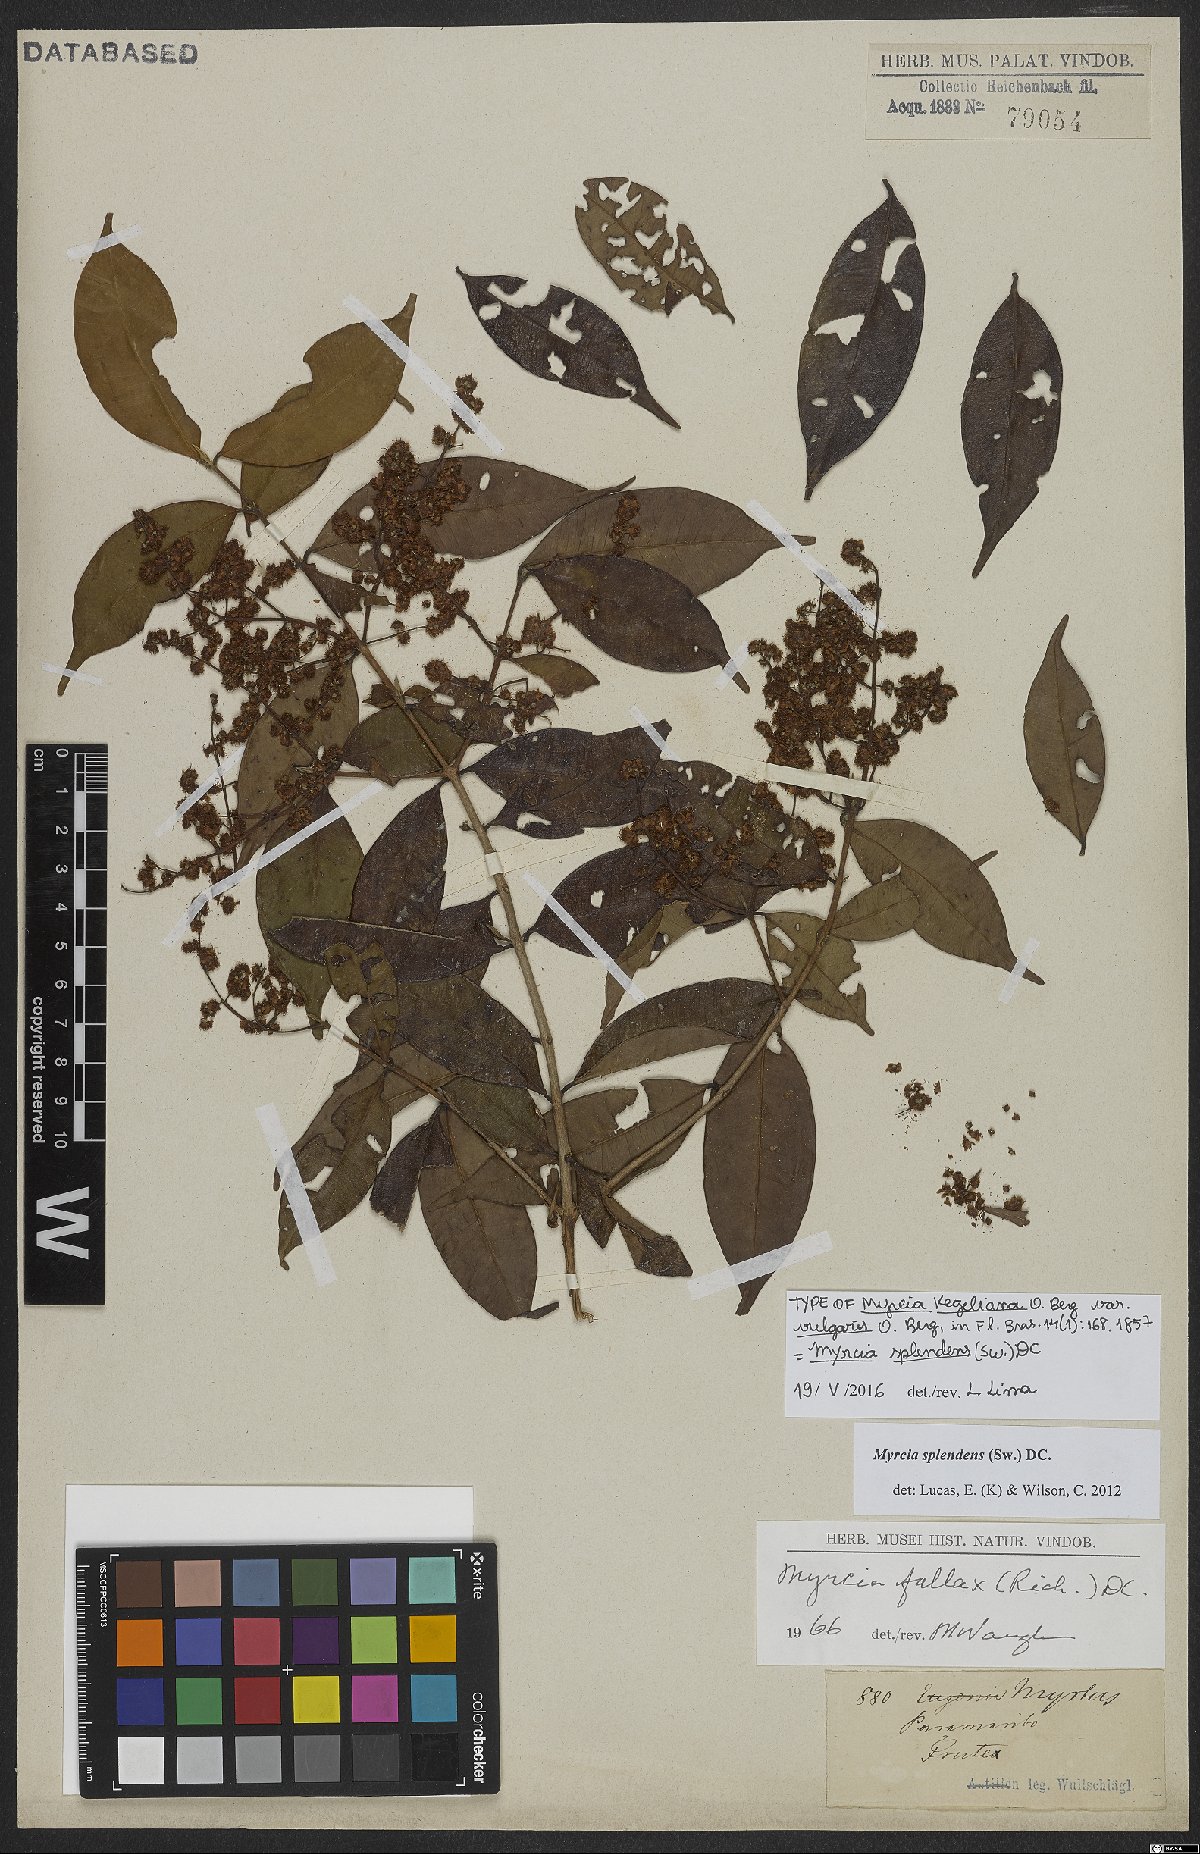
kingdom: Plantae
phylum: Tracheophyta
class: Magnoliopsida
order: Myrtales
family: Myrtaceae
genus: Myrcia
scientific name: Myrcia splendens
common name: Surinam cherry
